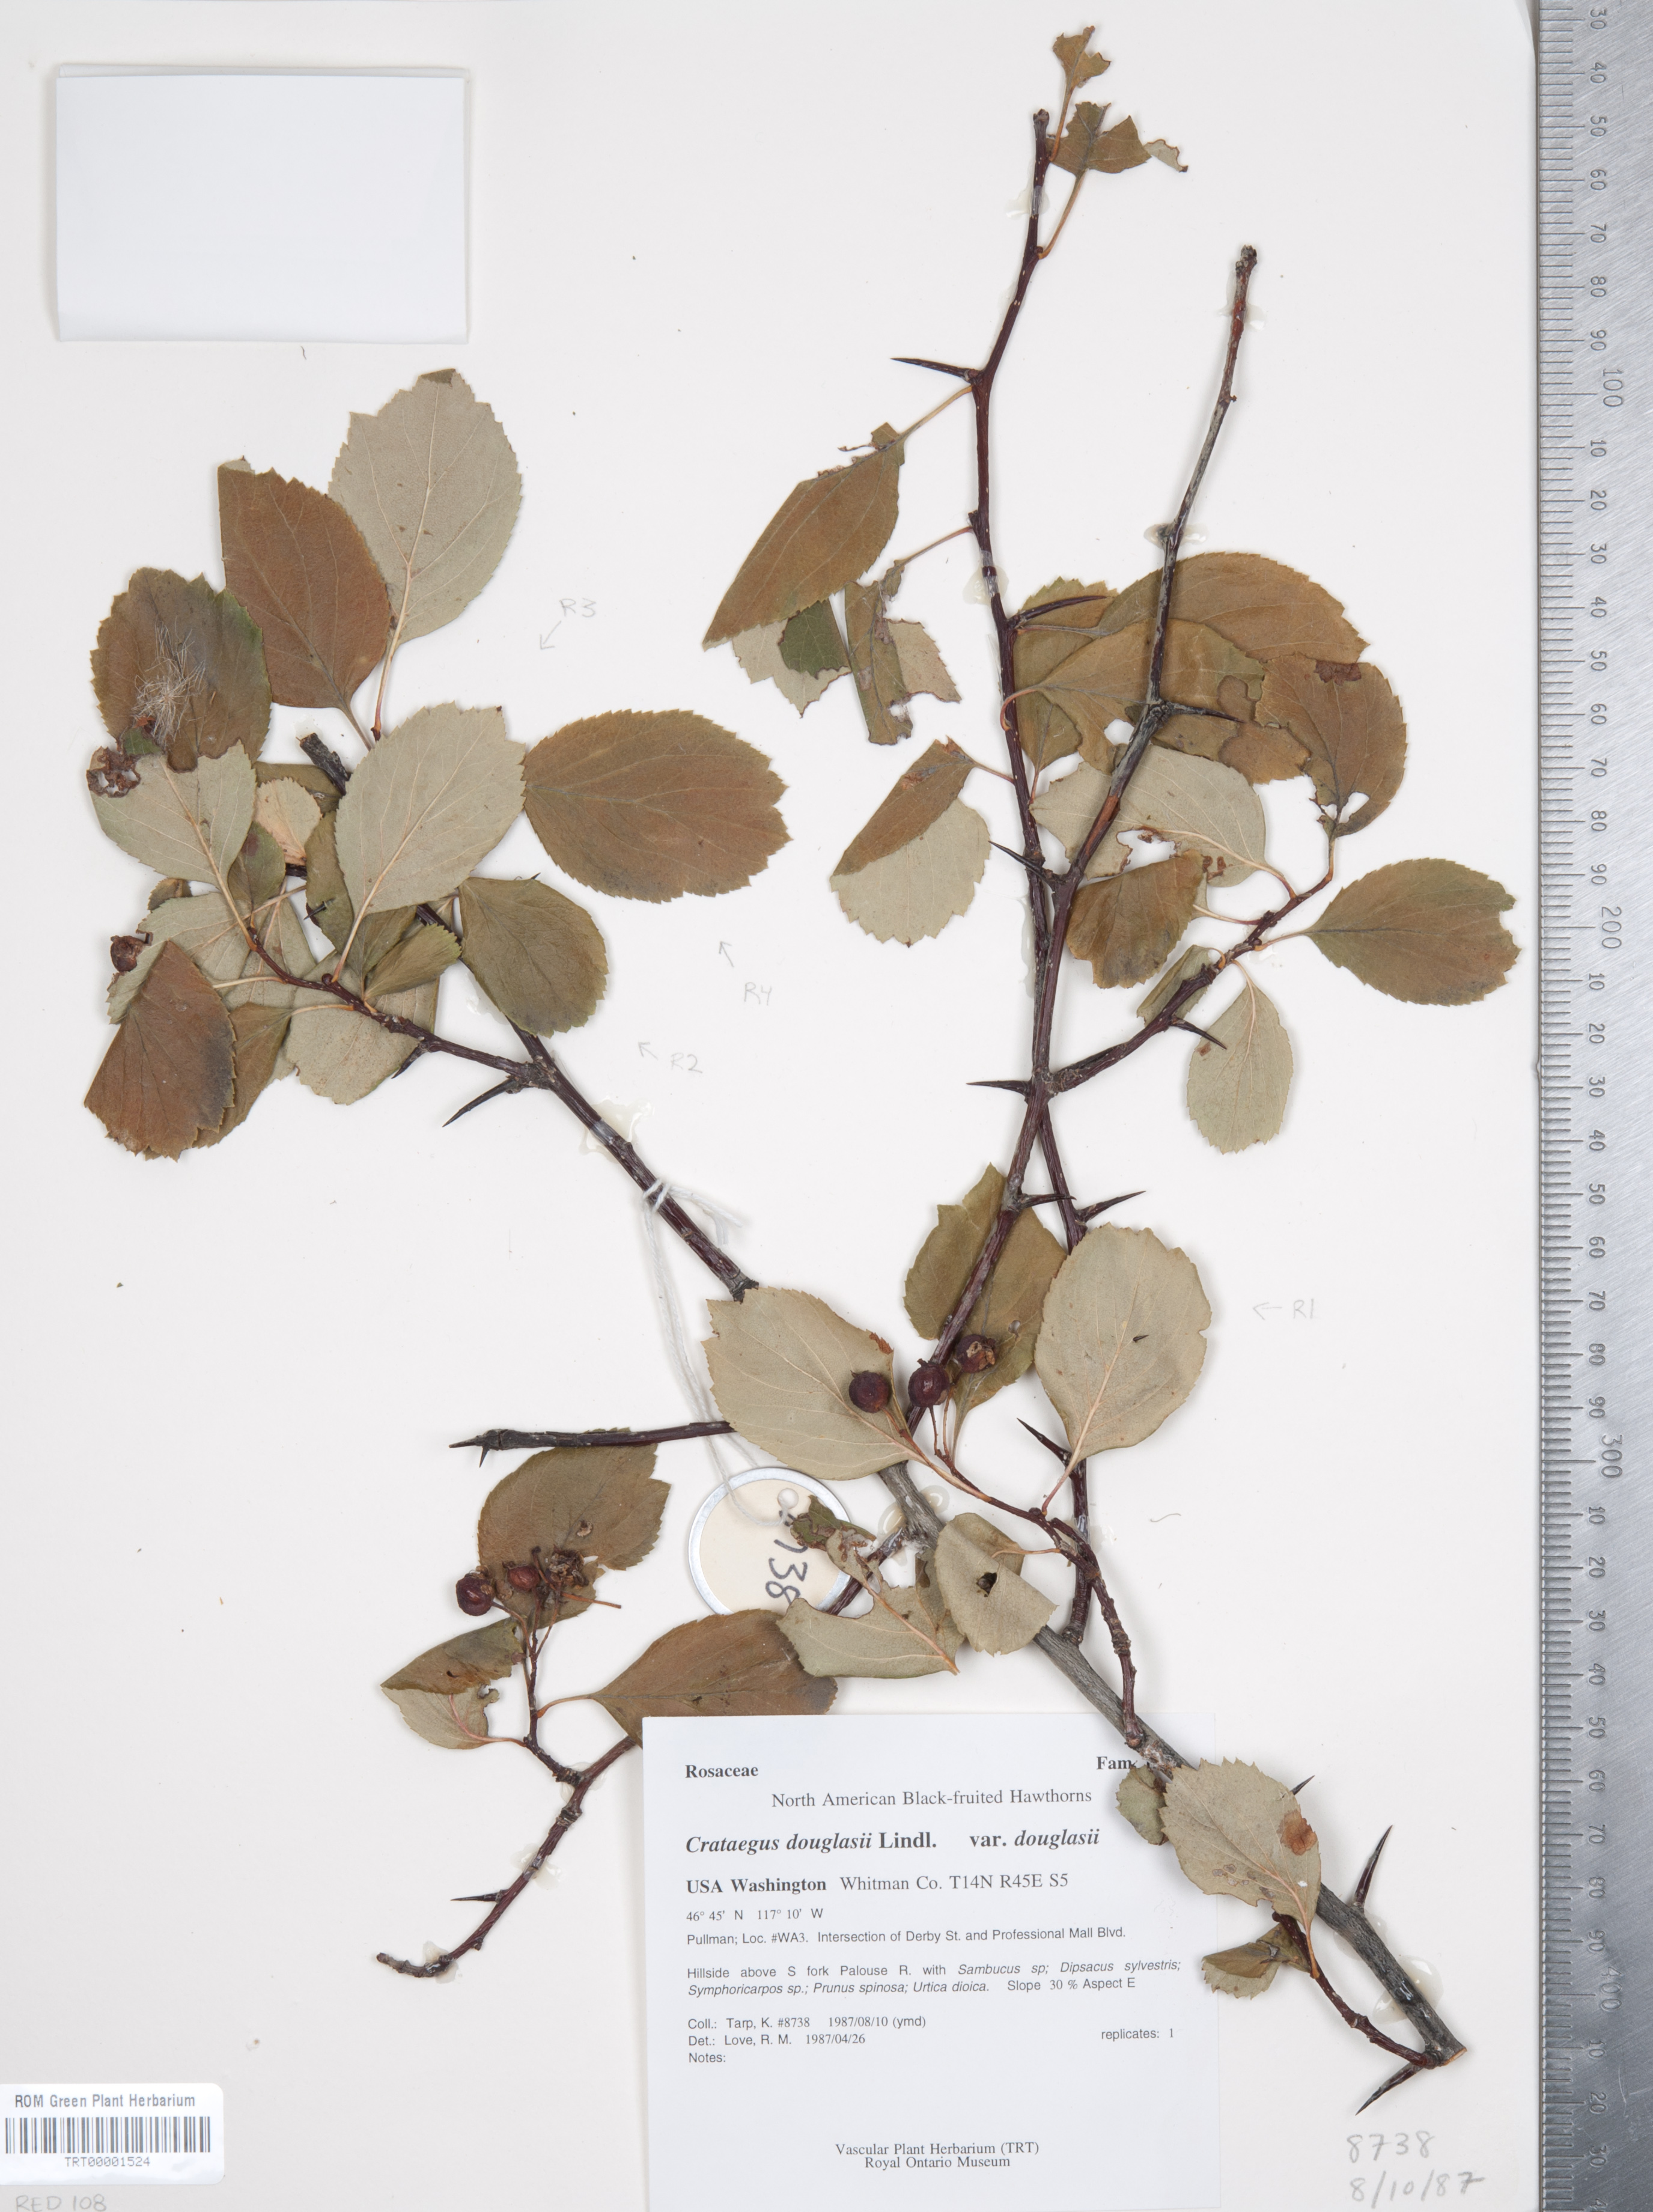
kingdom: Plantae
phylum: Tracheophyta
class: Magnoliopsida
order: Rosales
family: Rosaceae
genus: Crataegus
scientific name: Crataegus douglasii
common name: Black hawthorn
